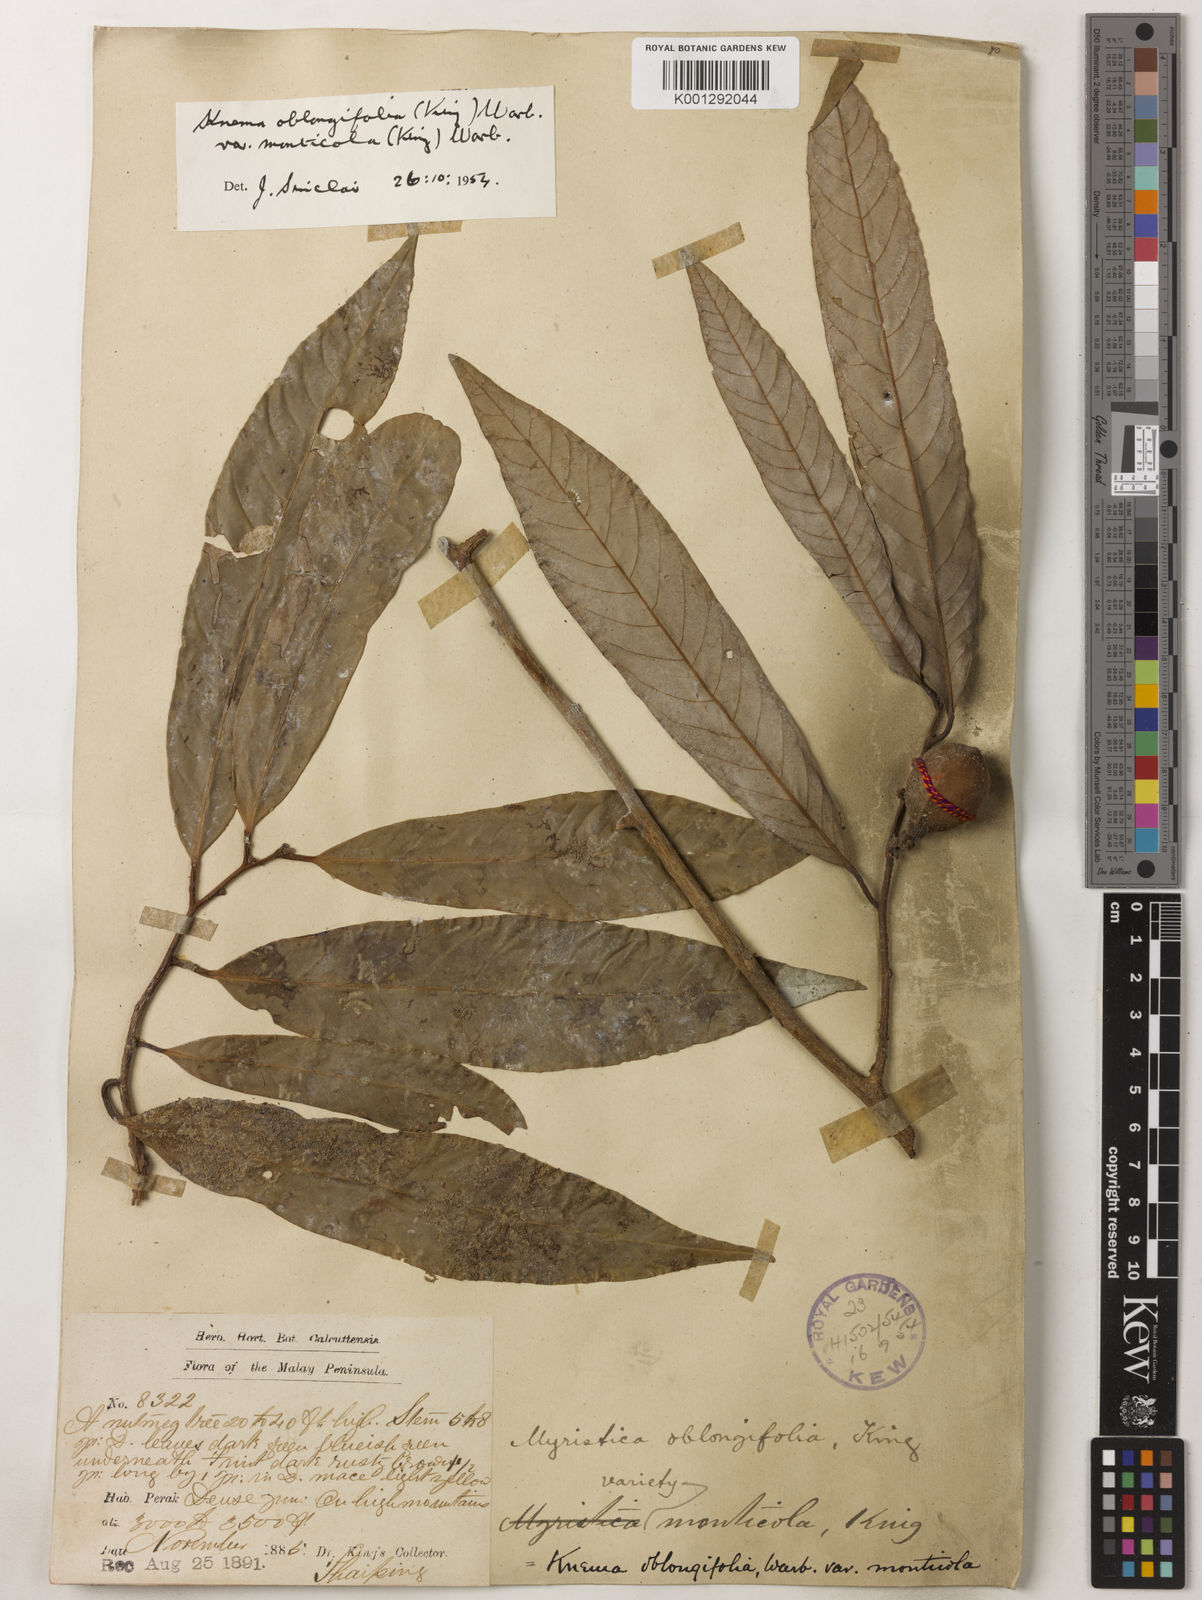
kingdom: Plantae
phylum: Tracheophyta
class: Magnoliopsida
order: Magnoliales
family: Myristicaceae
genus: Knema
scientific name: Knema
